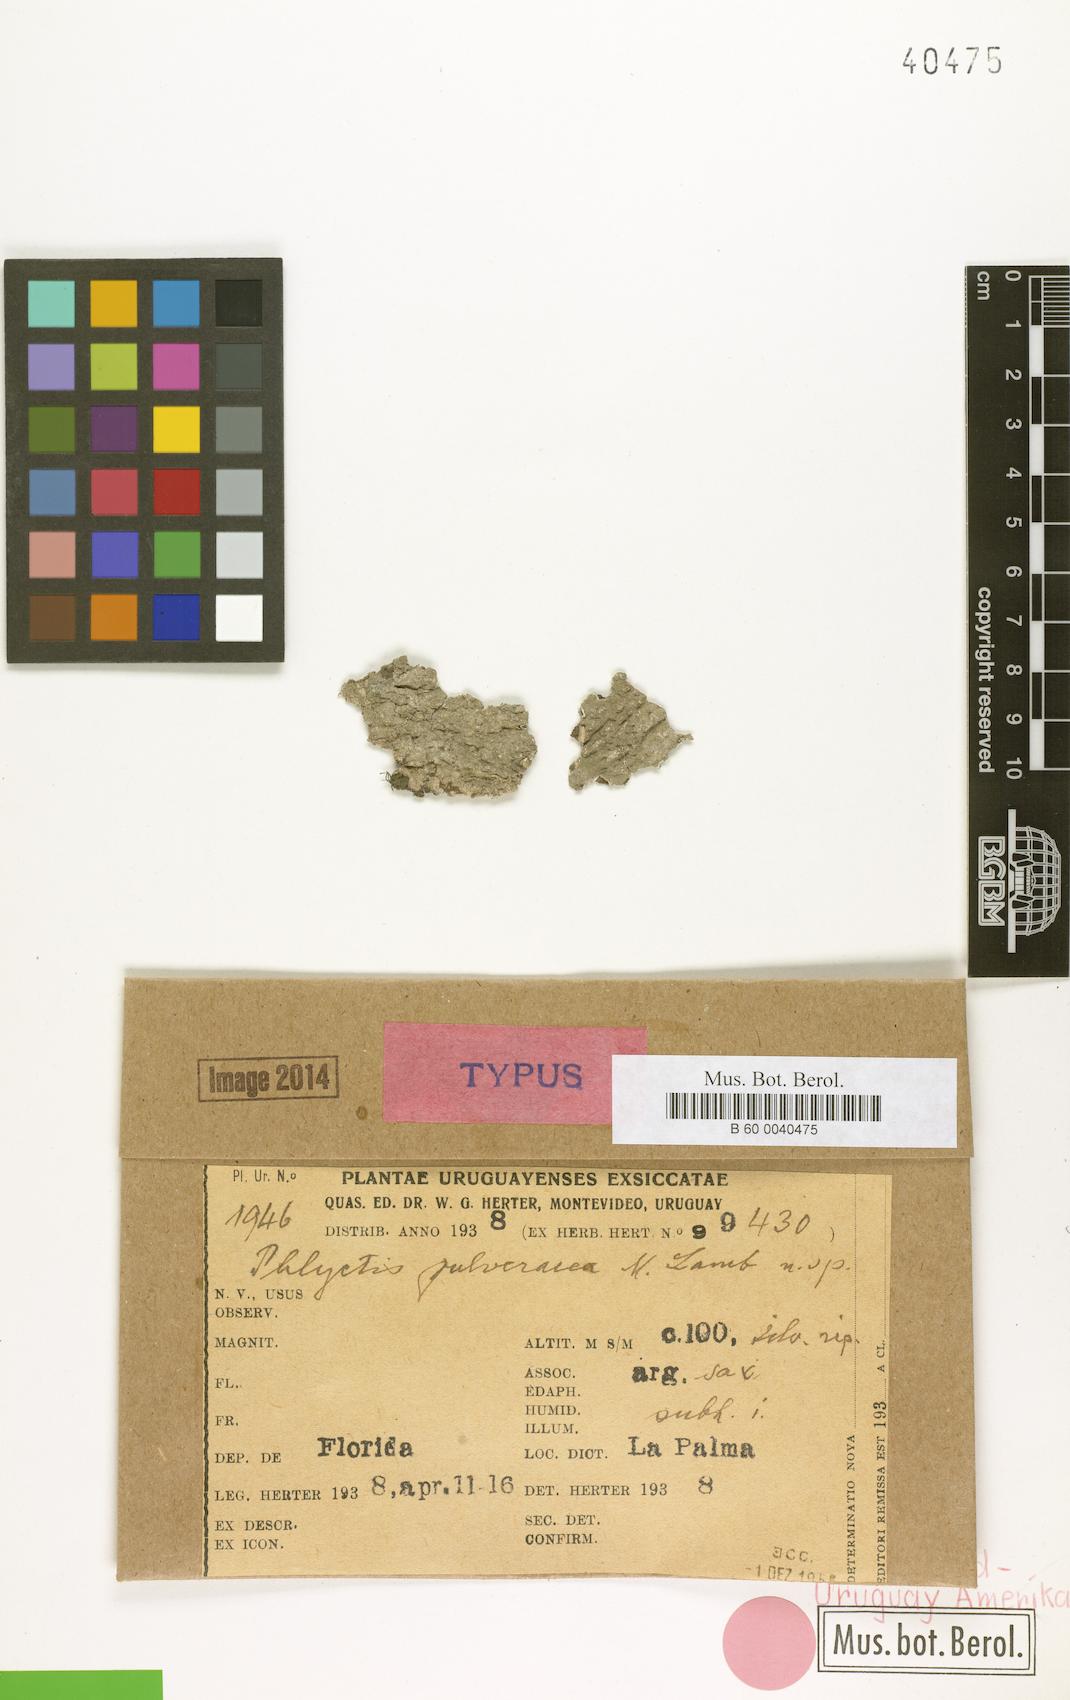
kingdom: Fungi
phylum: Ascomycota
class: Lecanoromycetes
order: Ostropales
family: Phlyctidaceae
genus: Phlyctis
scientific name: Phlyctis
